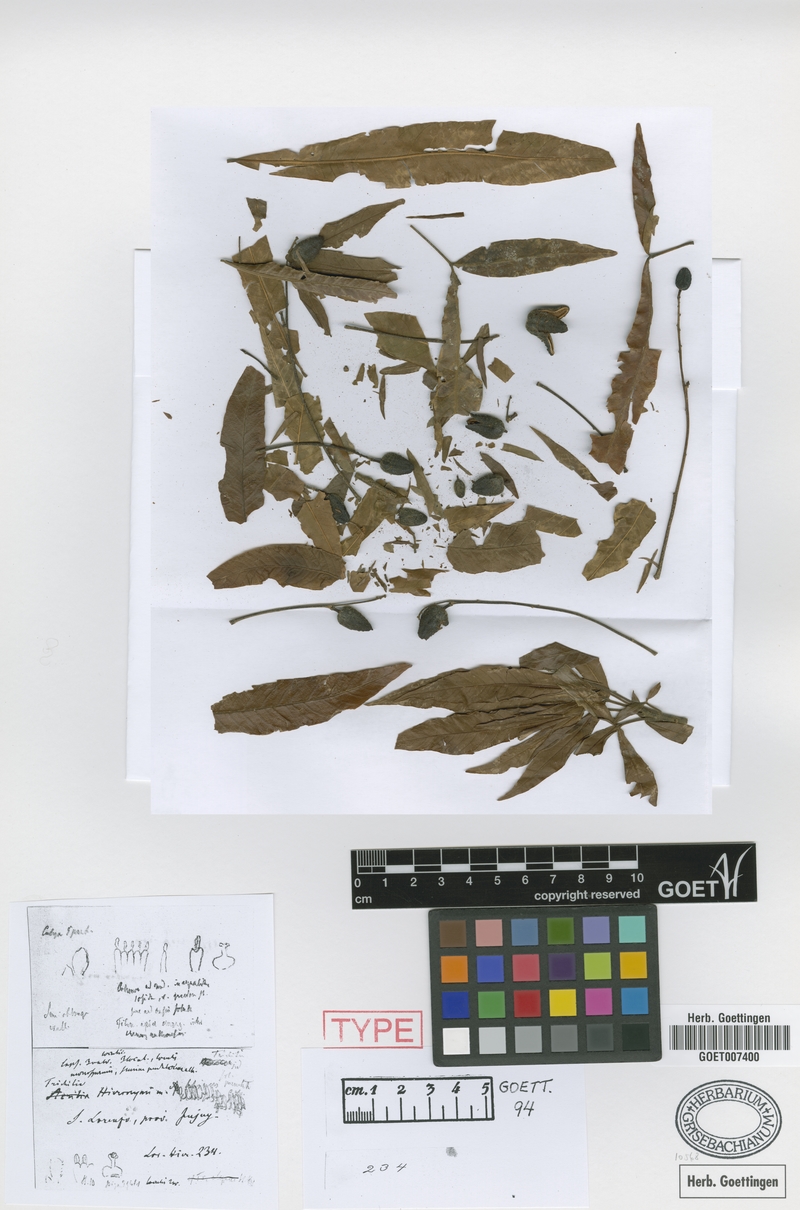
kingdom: Plantae
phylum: Tracheophyta
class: Magnoliopsida
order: Sapindales
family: Meliaceae
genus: Trichilia
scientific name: Trichilia claussenii
